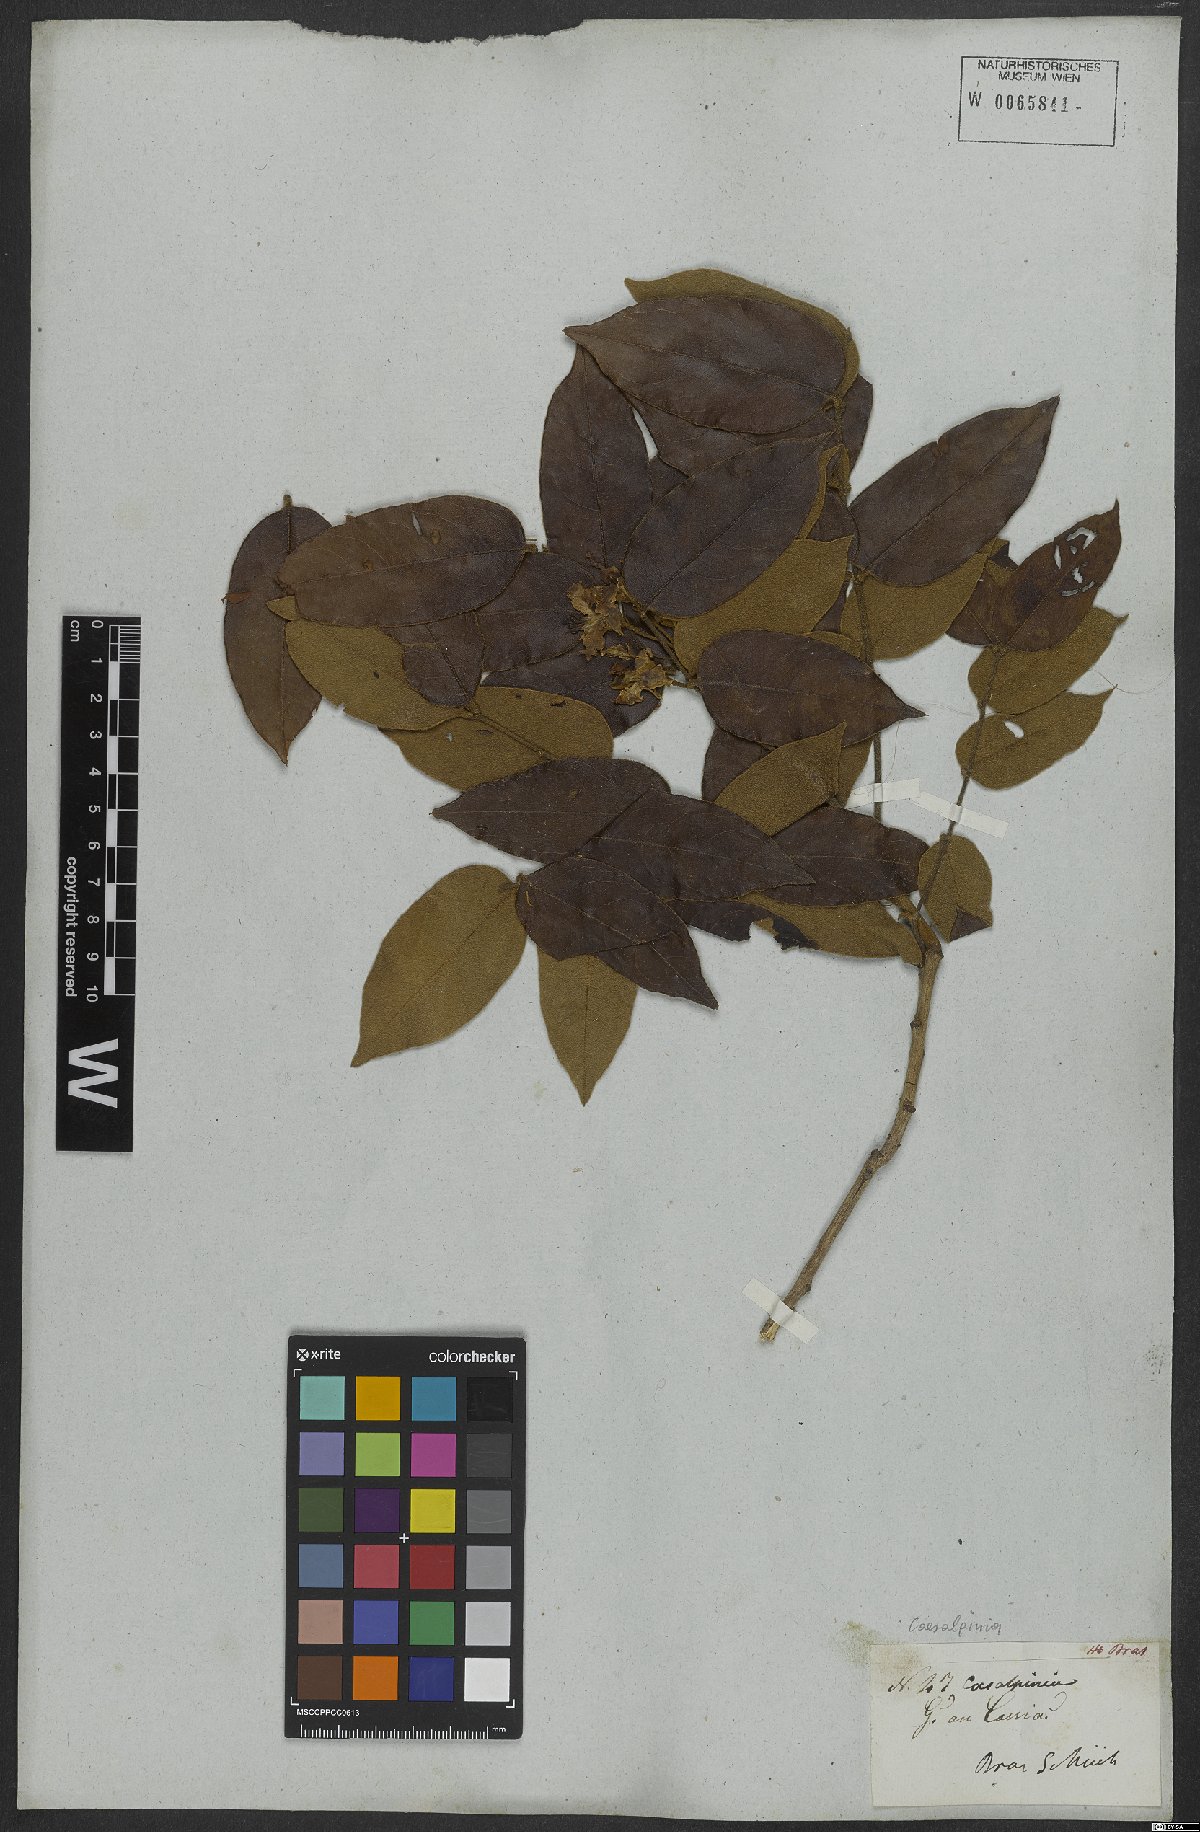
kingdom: Plantae
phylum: Tracheophyta
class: Magnoliopsida
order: Fabales
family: Fabaceae
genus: Caesalpinia
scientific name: Caesalpinia
